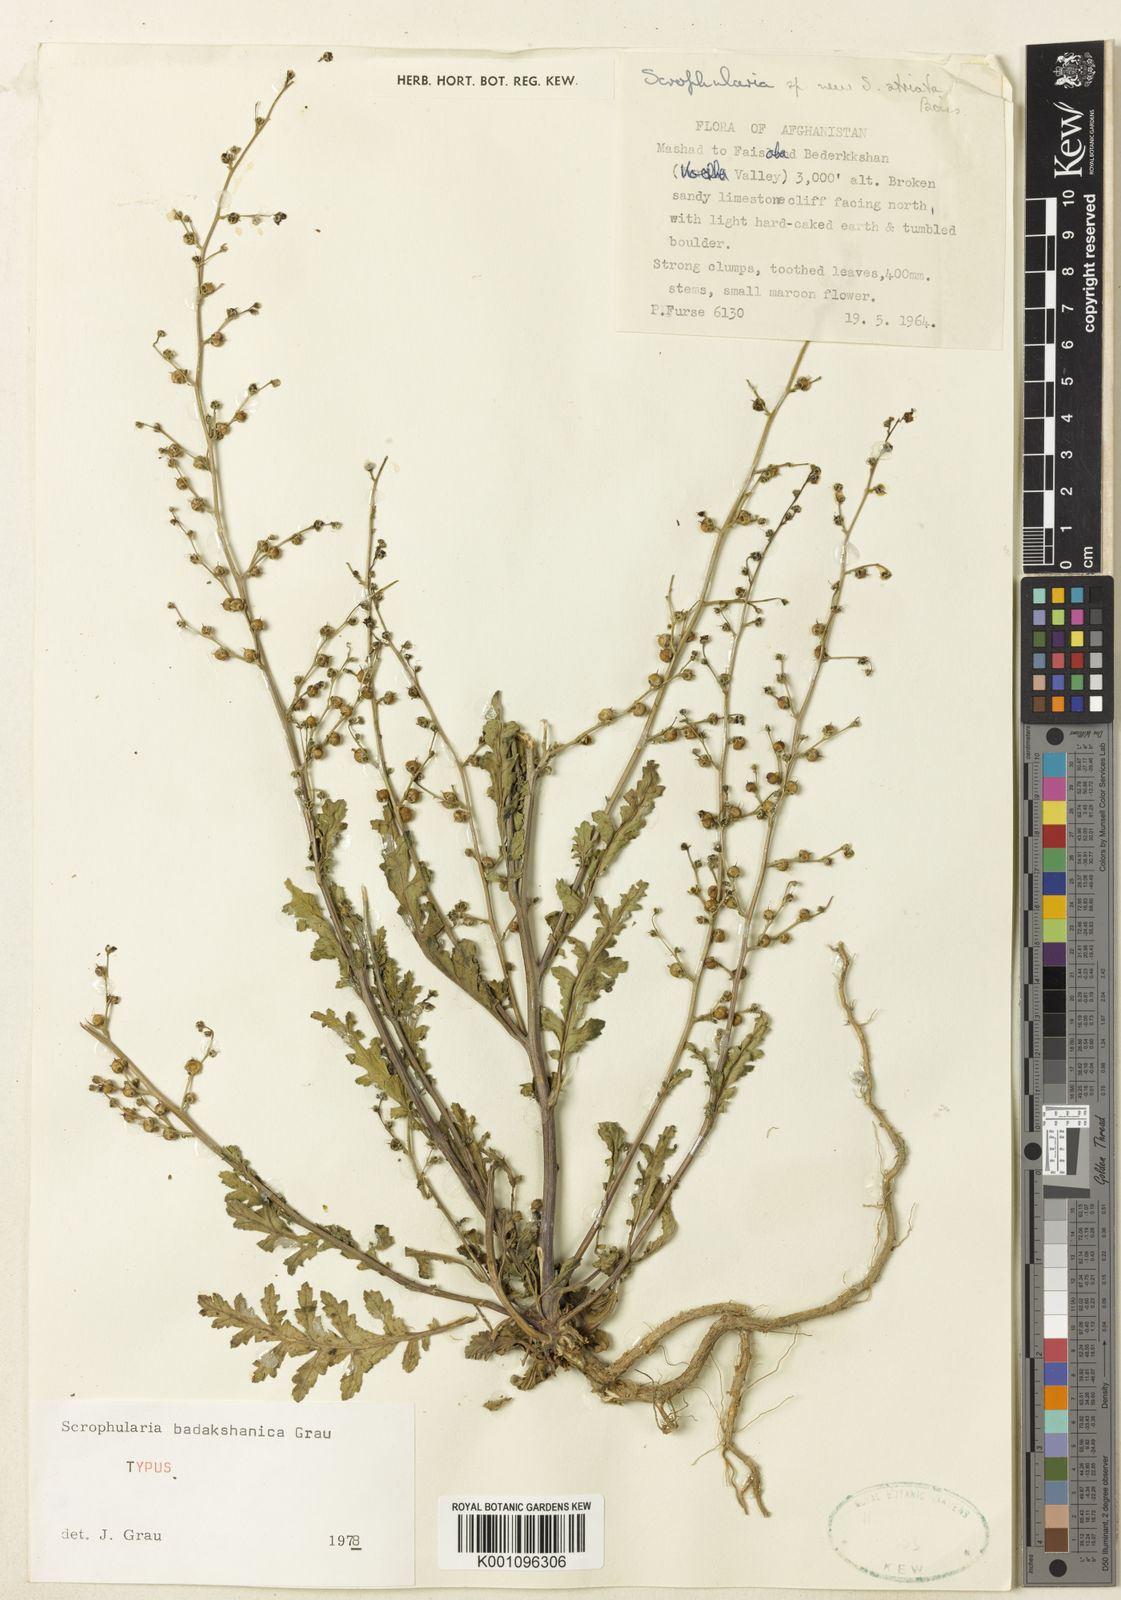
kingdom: Plantae
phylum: Tracheophyta
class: Magnoliopsida
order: Lamiales
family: Scrophulariaceae
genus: Scrophularia
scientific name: Scrophularia badakhshanica
